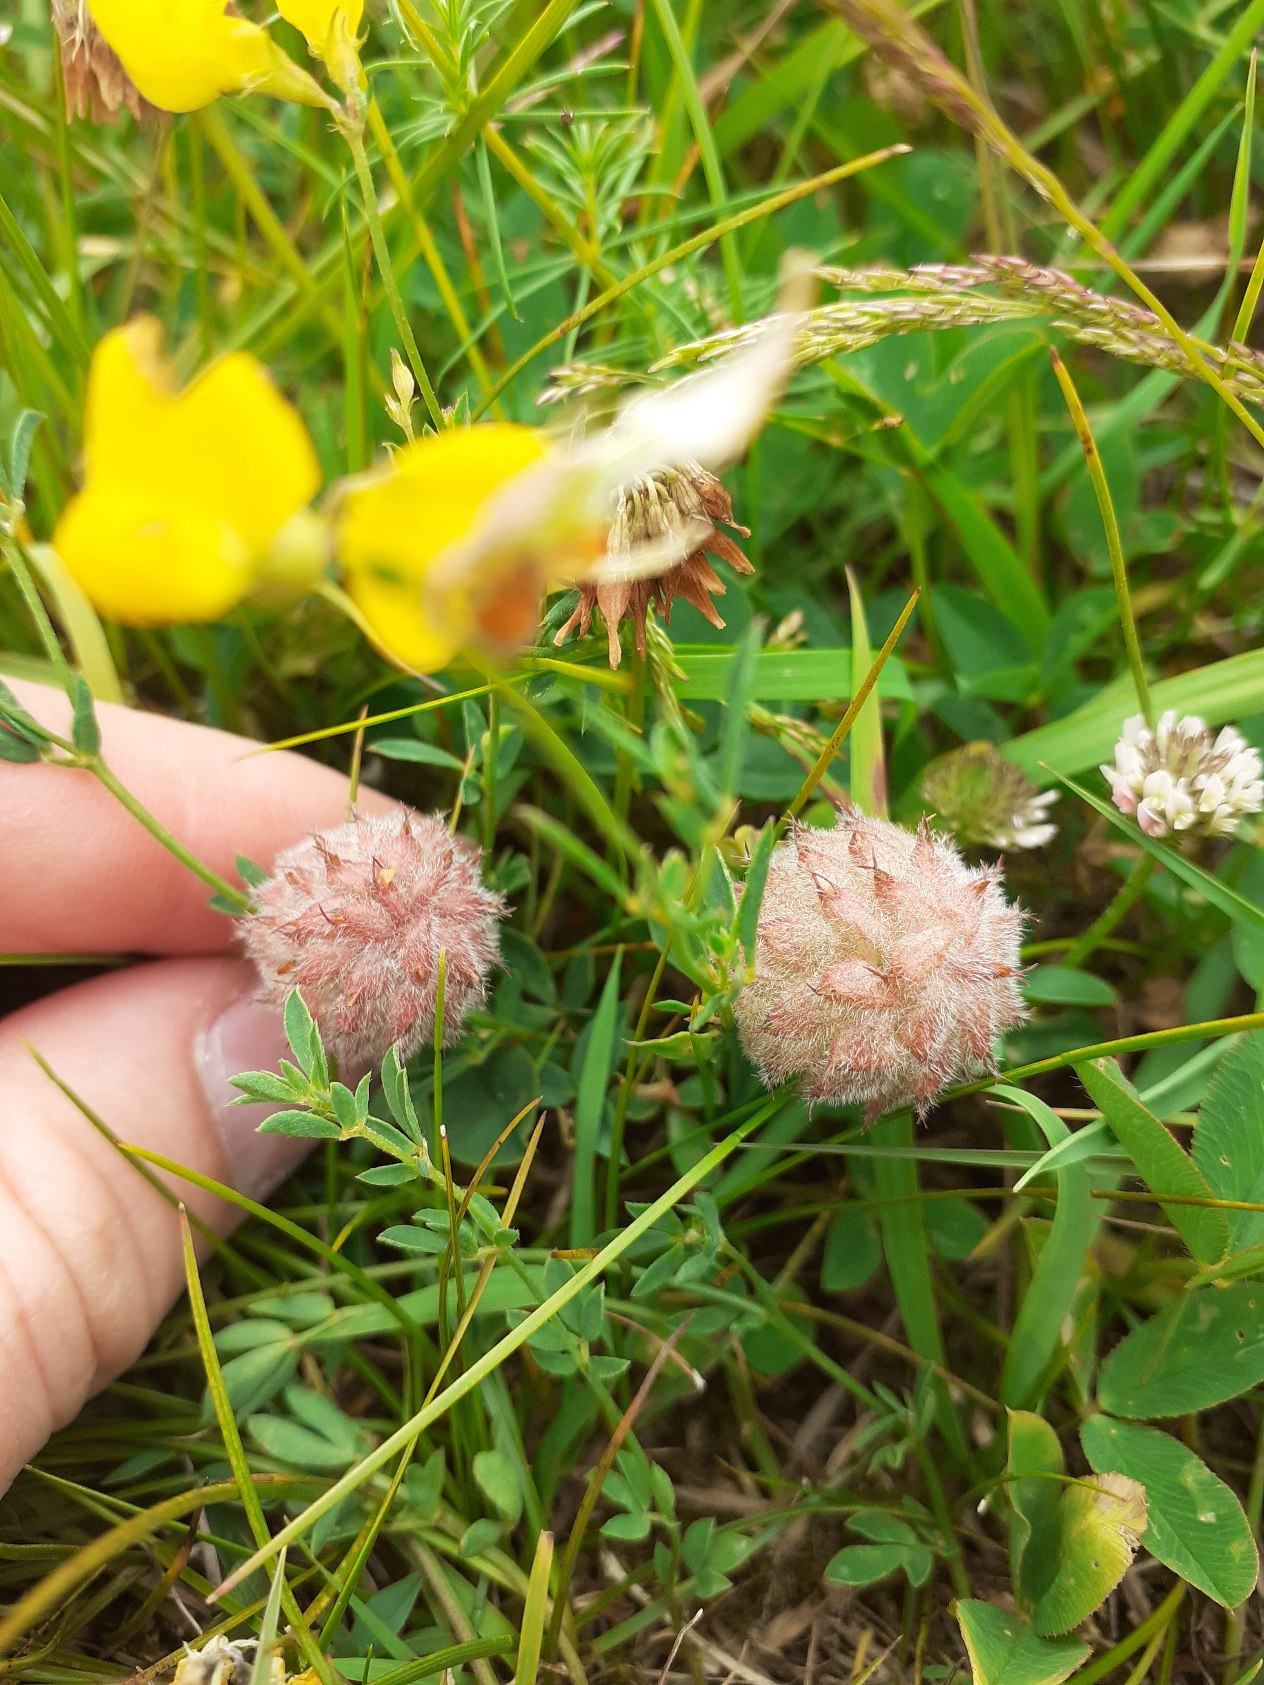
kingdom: Plantae
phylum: Tracheophyta
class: Magnoliopsida
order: Fabales
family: Fabaceae
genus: Trifolium
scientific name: Trifolium fragiferum
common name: Jordbær-kløver
